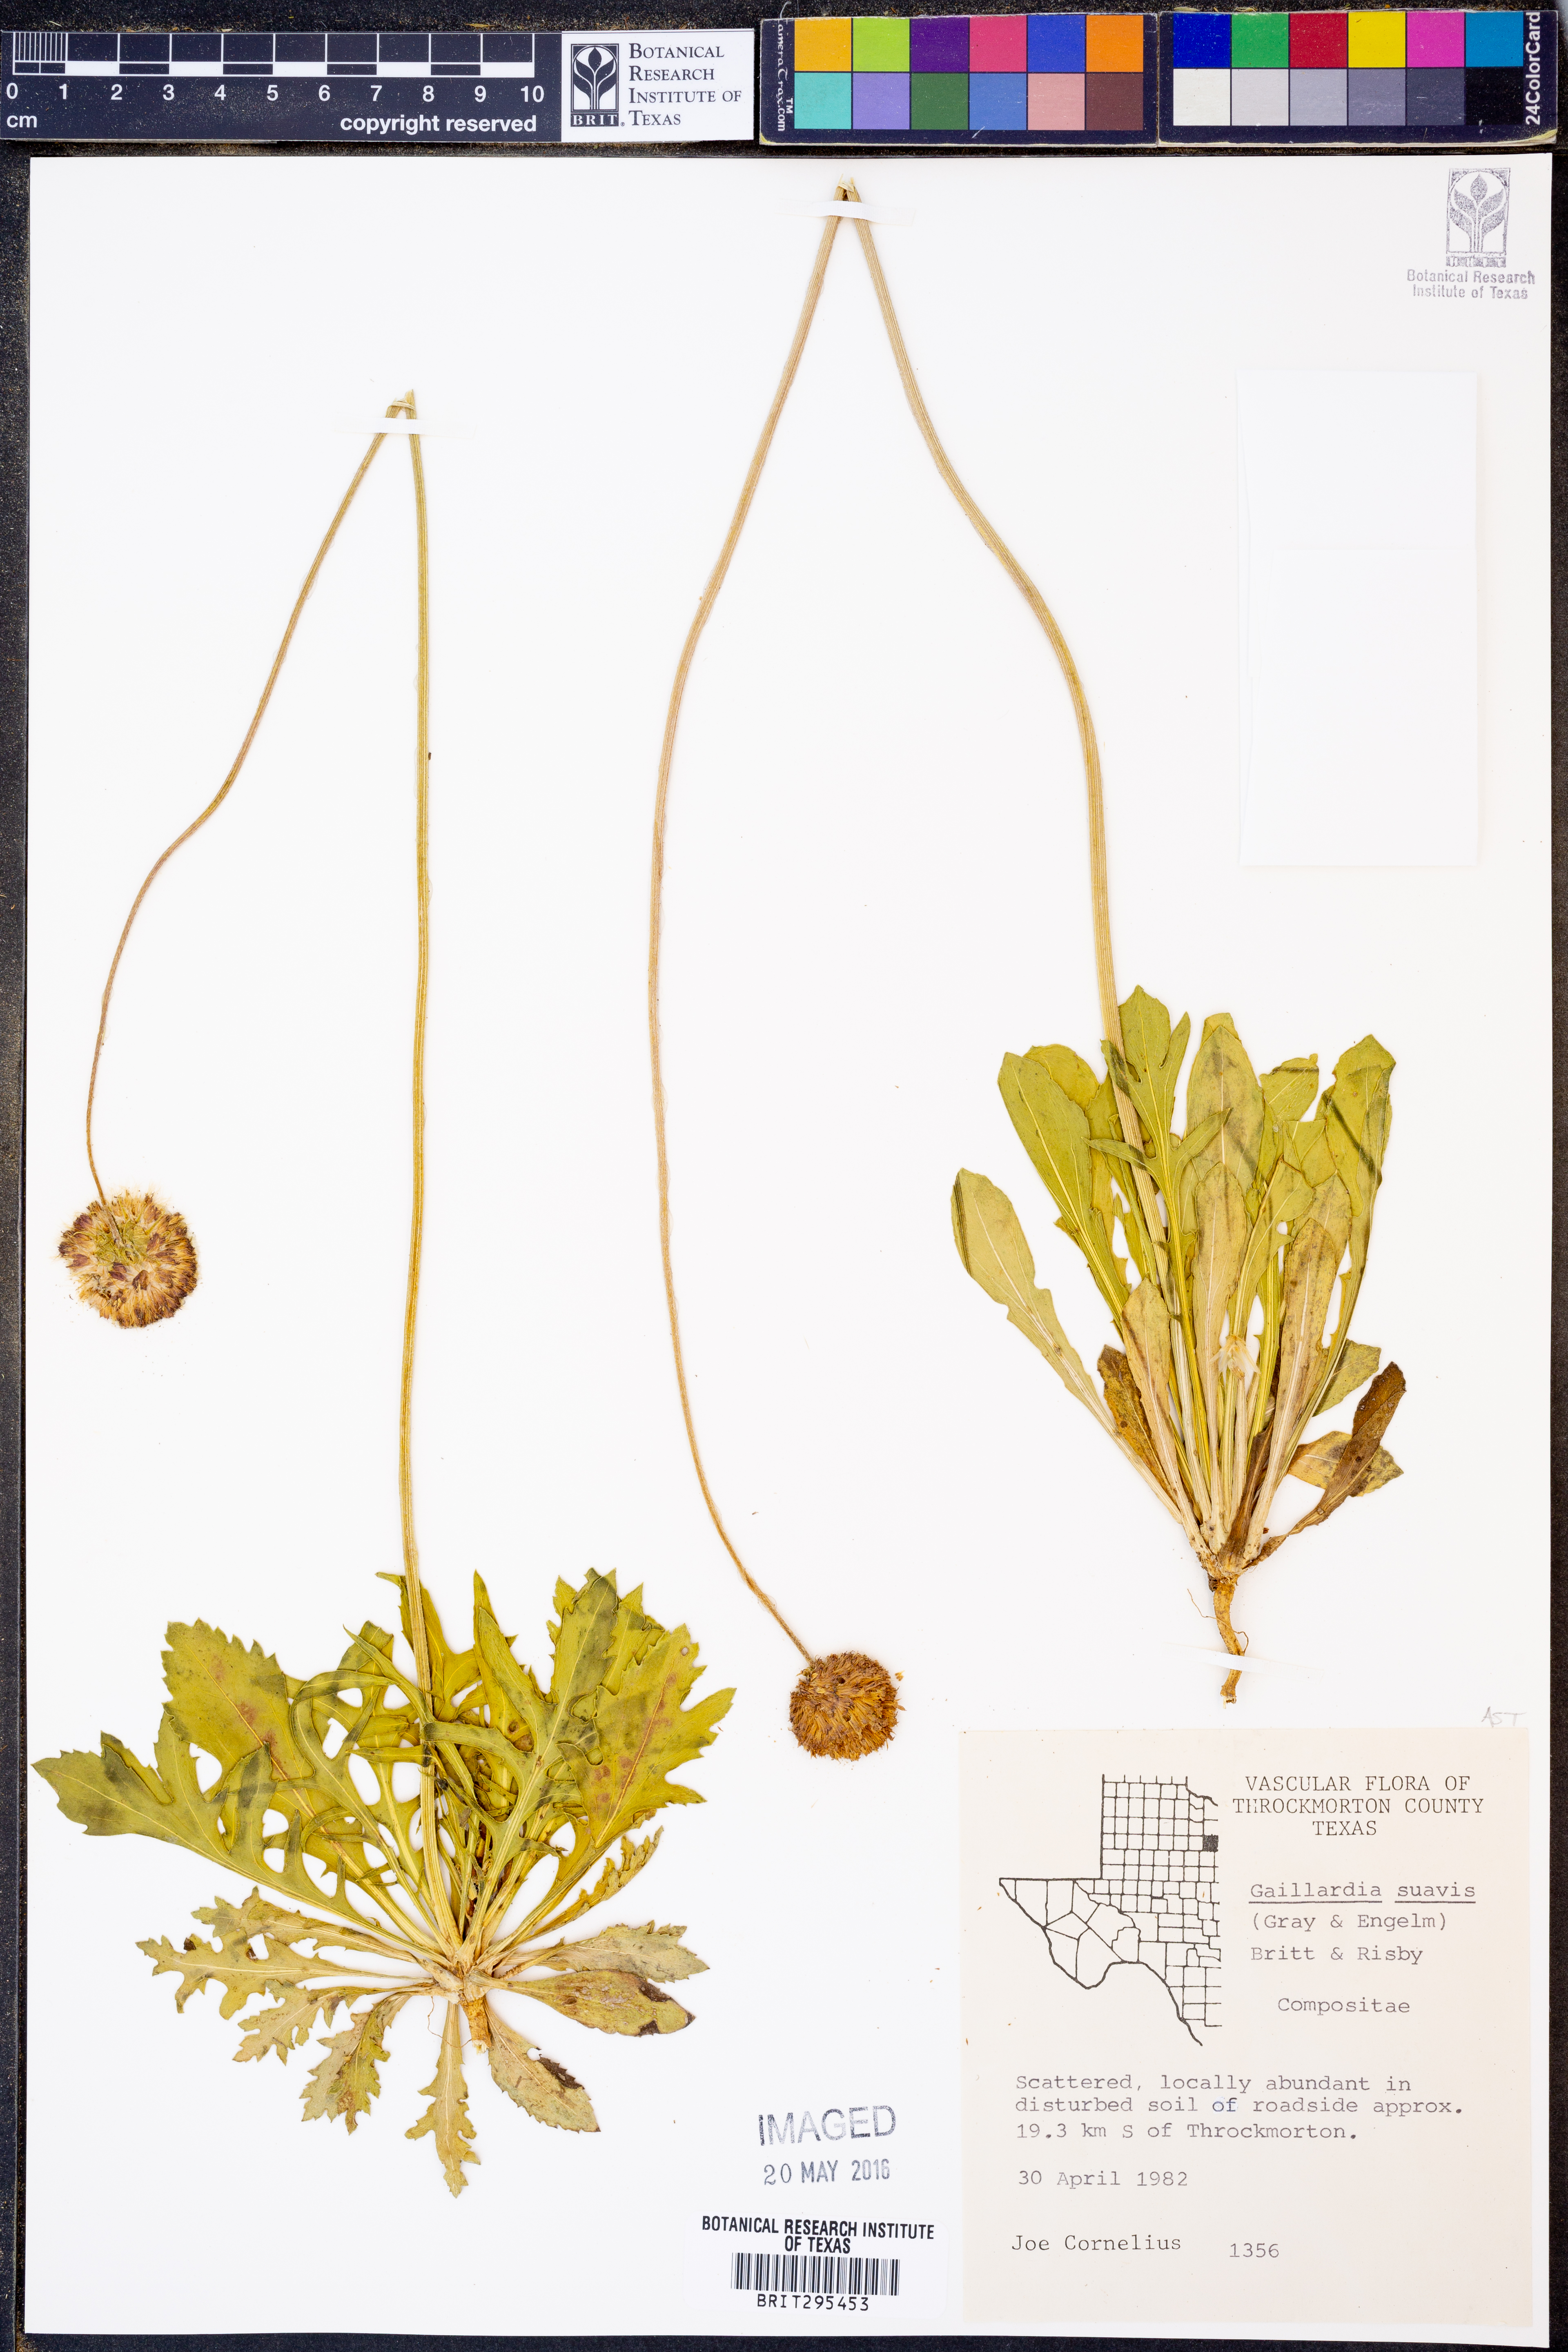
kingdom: Plantae
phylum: Tracheophyta
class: Magnoliopsida
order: Asterales
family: Asteraceae
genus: Gaillardia
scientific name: Gaillardia suavis
